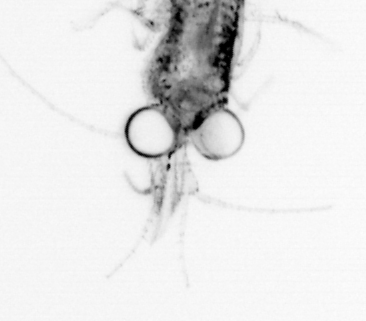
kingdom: Animalia
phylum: Annelida
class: Polychaeta
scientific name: Polychaeta
